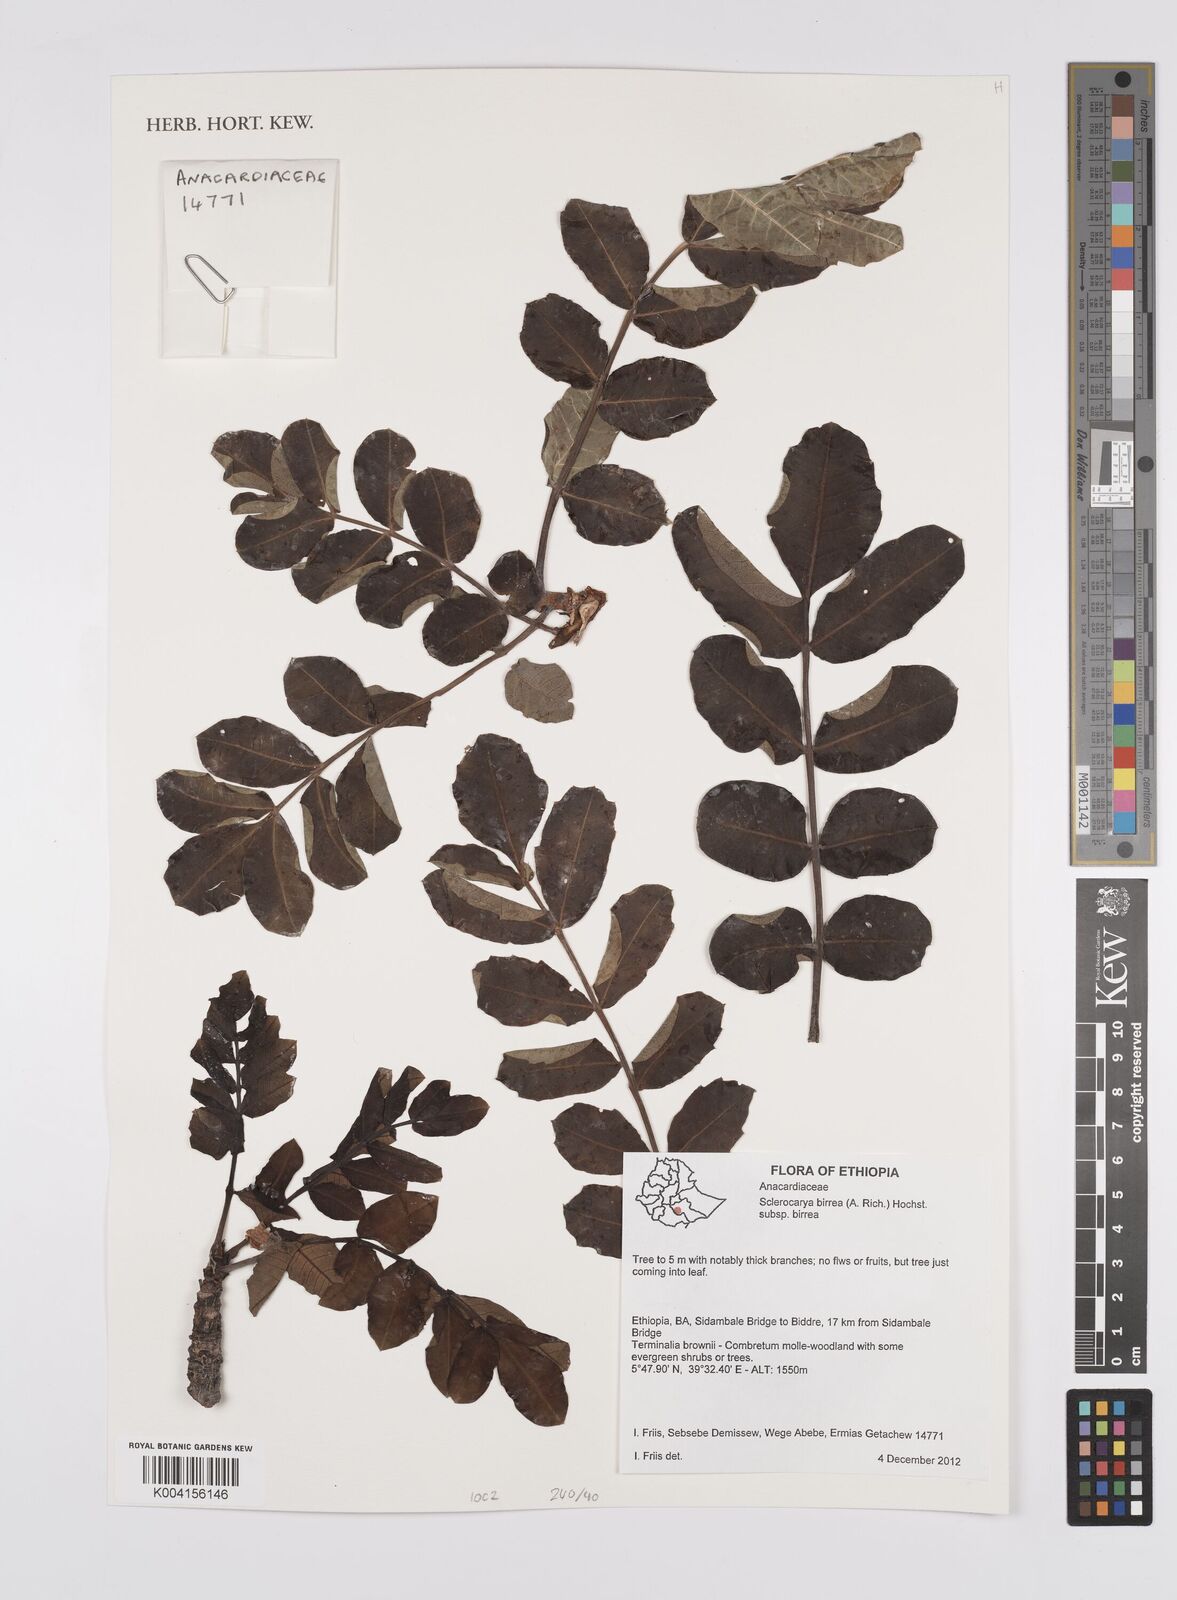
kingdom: Plantae
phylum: Tracheophyta
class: Magnoliopsida
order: Sapindales
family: Anacardiaceae
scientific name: Anacardiaceae
